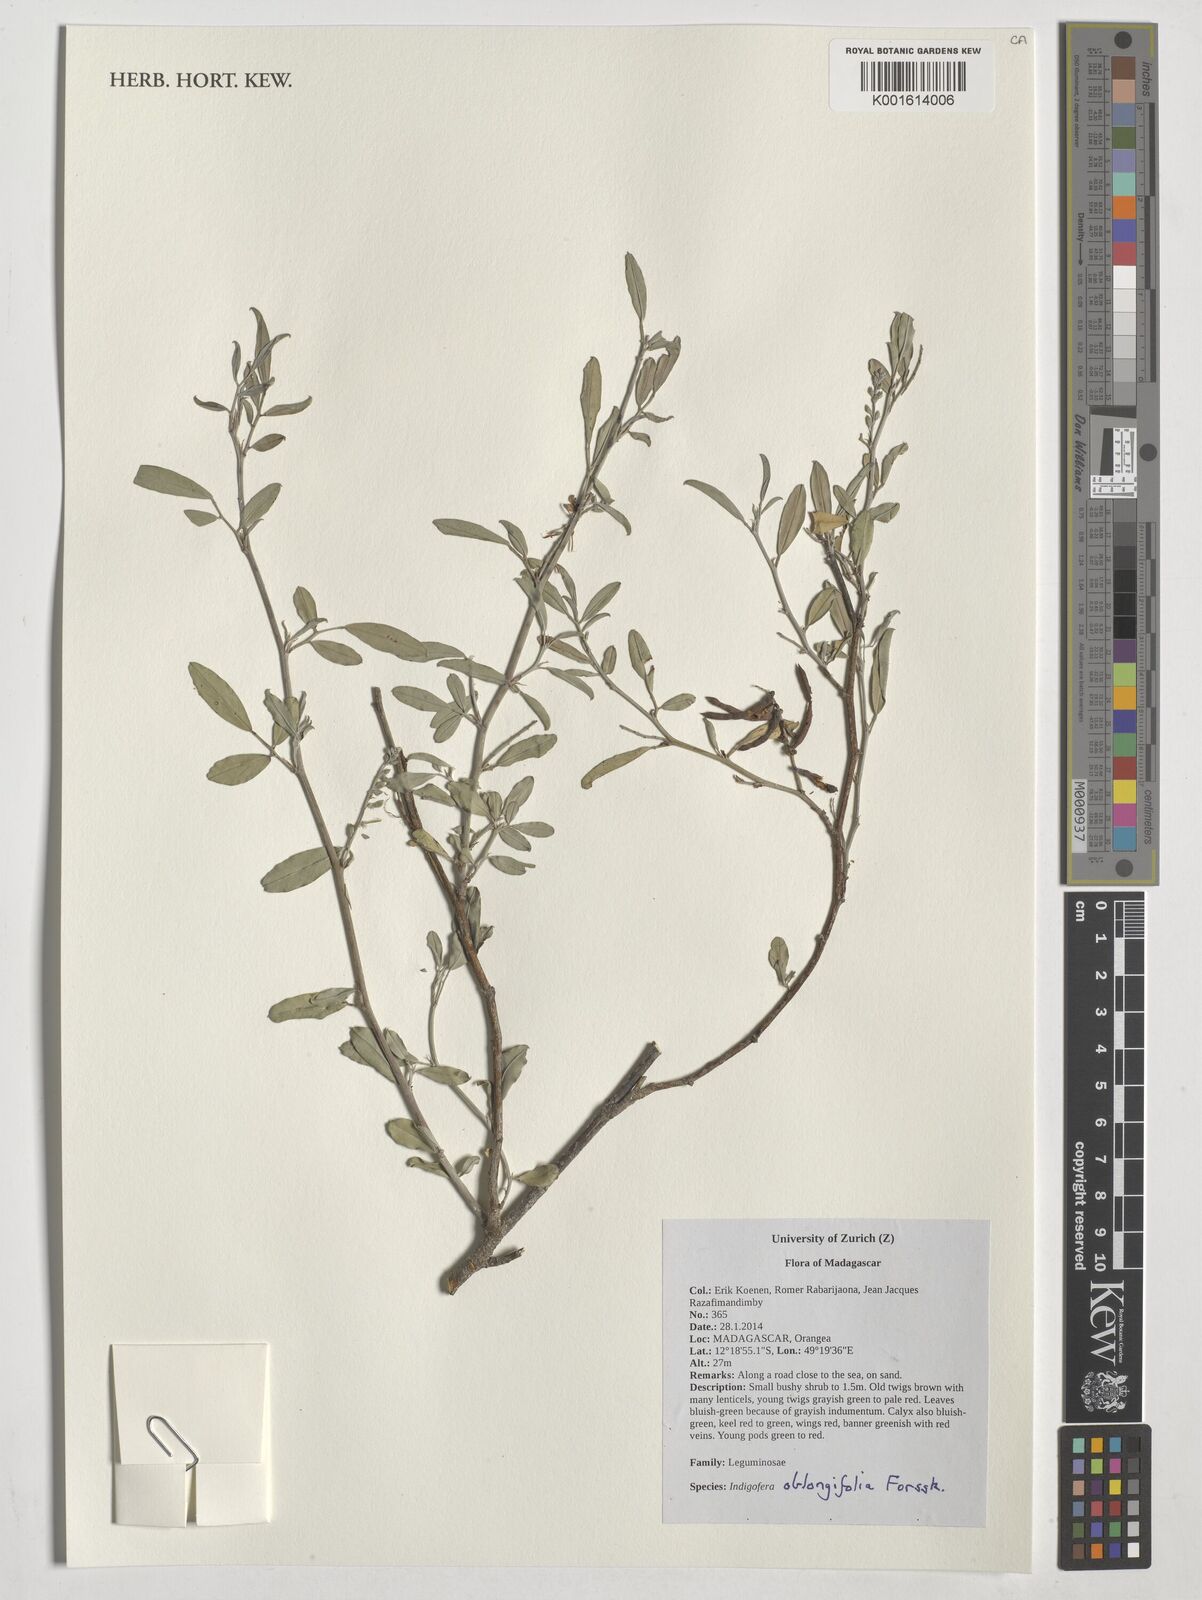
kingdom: Plantae
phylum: Tracheophyta
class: Magnoliopsida
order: Fabales
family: Fabaceae
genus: Indigofera
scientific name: Indigofera oblongifolia
